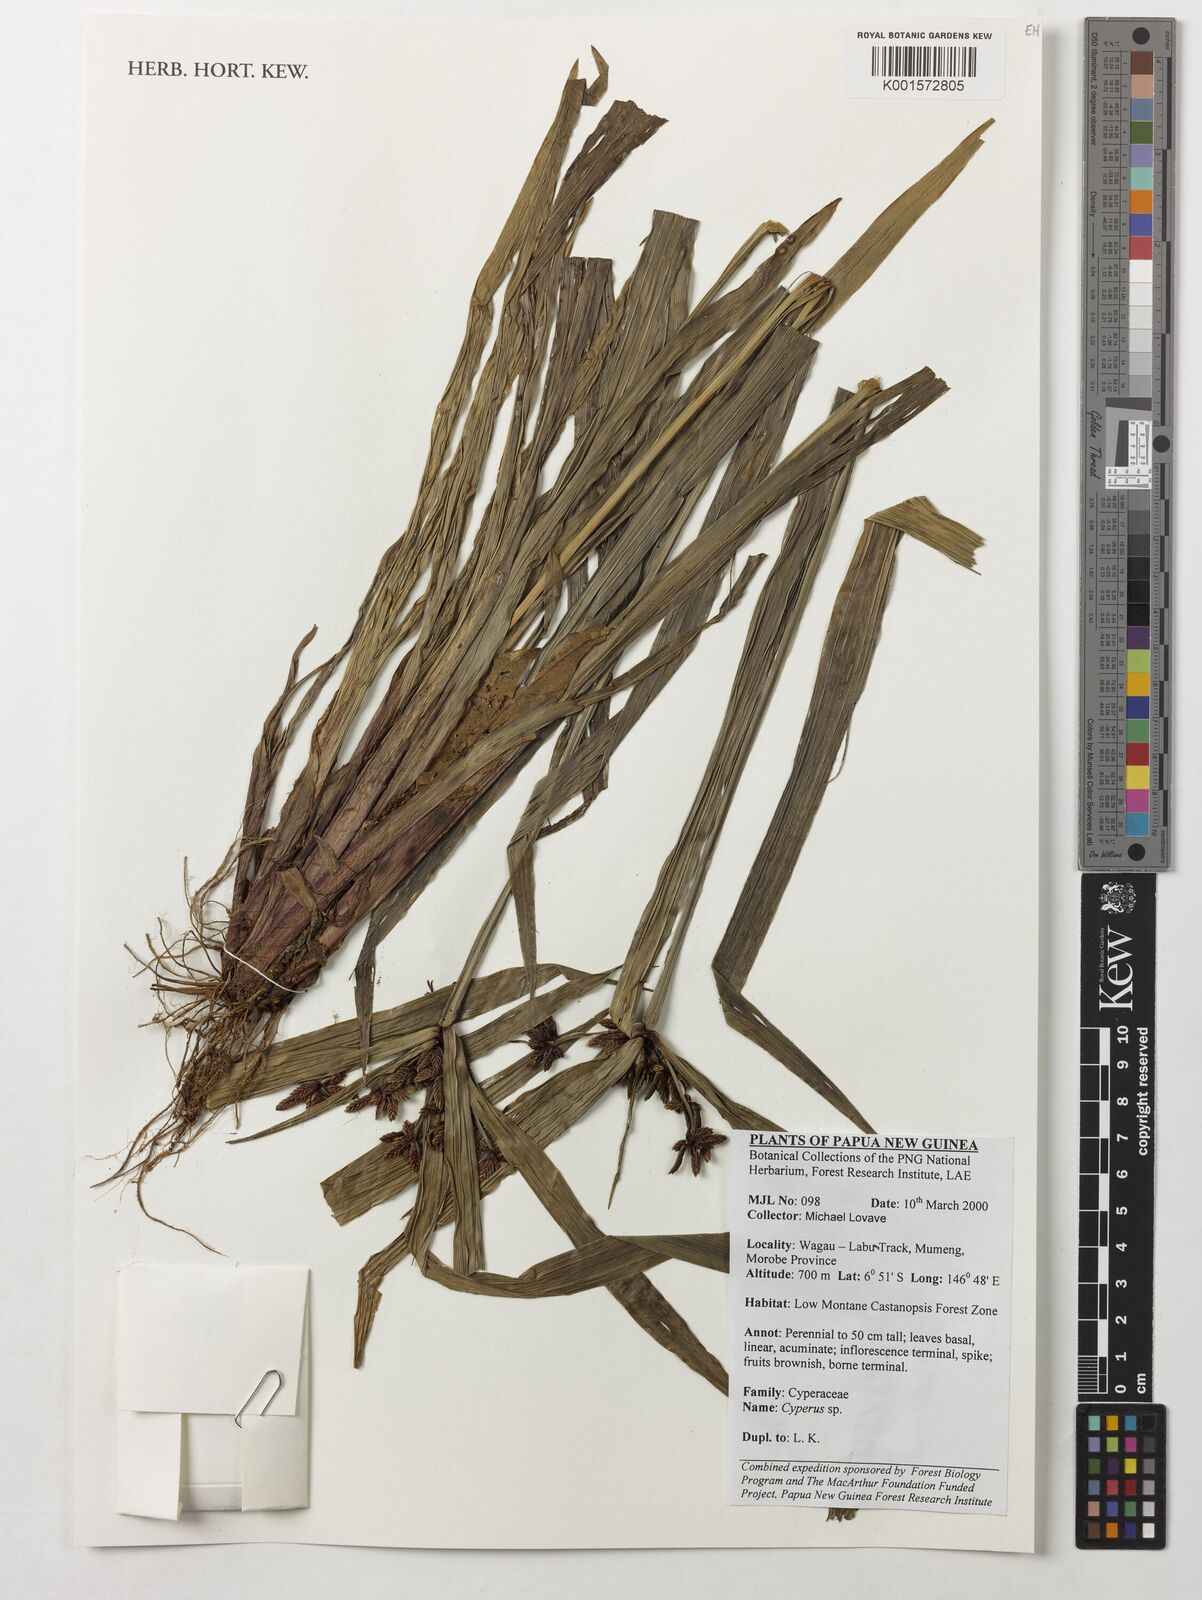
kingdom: Plantae
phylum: Tracheophyta
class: Liliopsida
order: Poales
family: Cyperaceae
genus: Cyperus
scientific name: Cyperus
